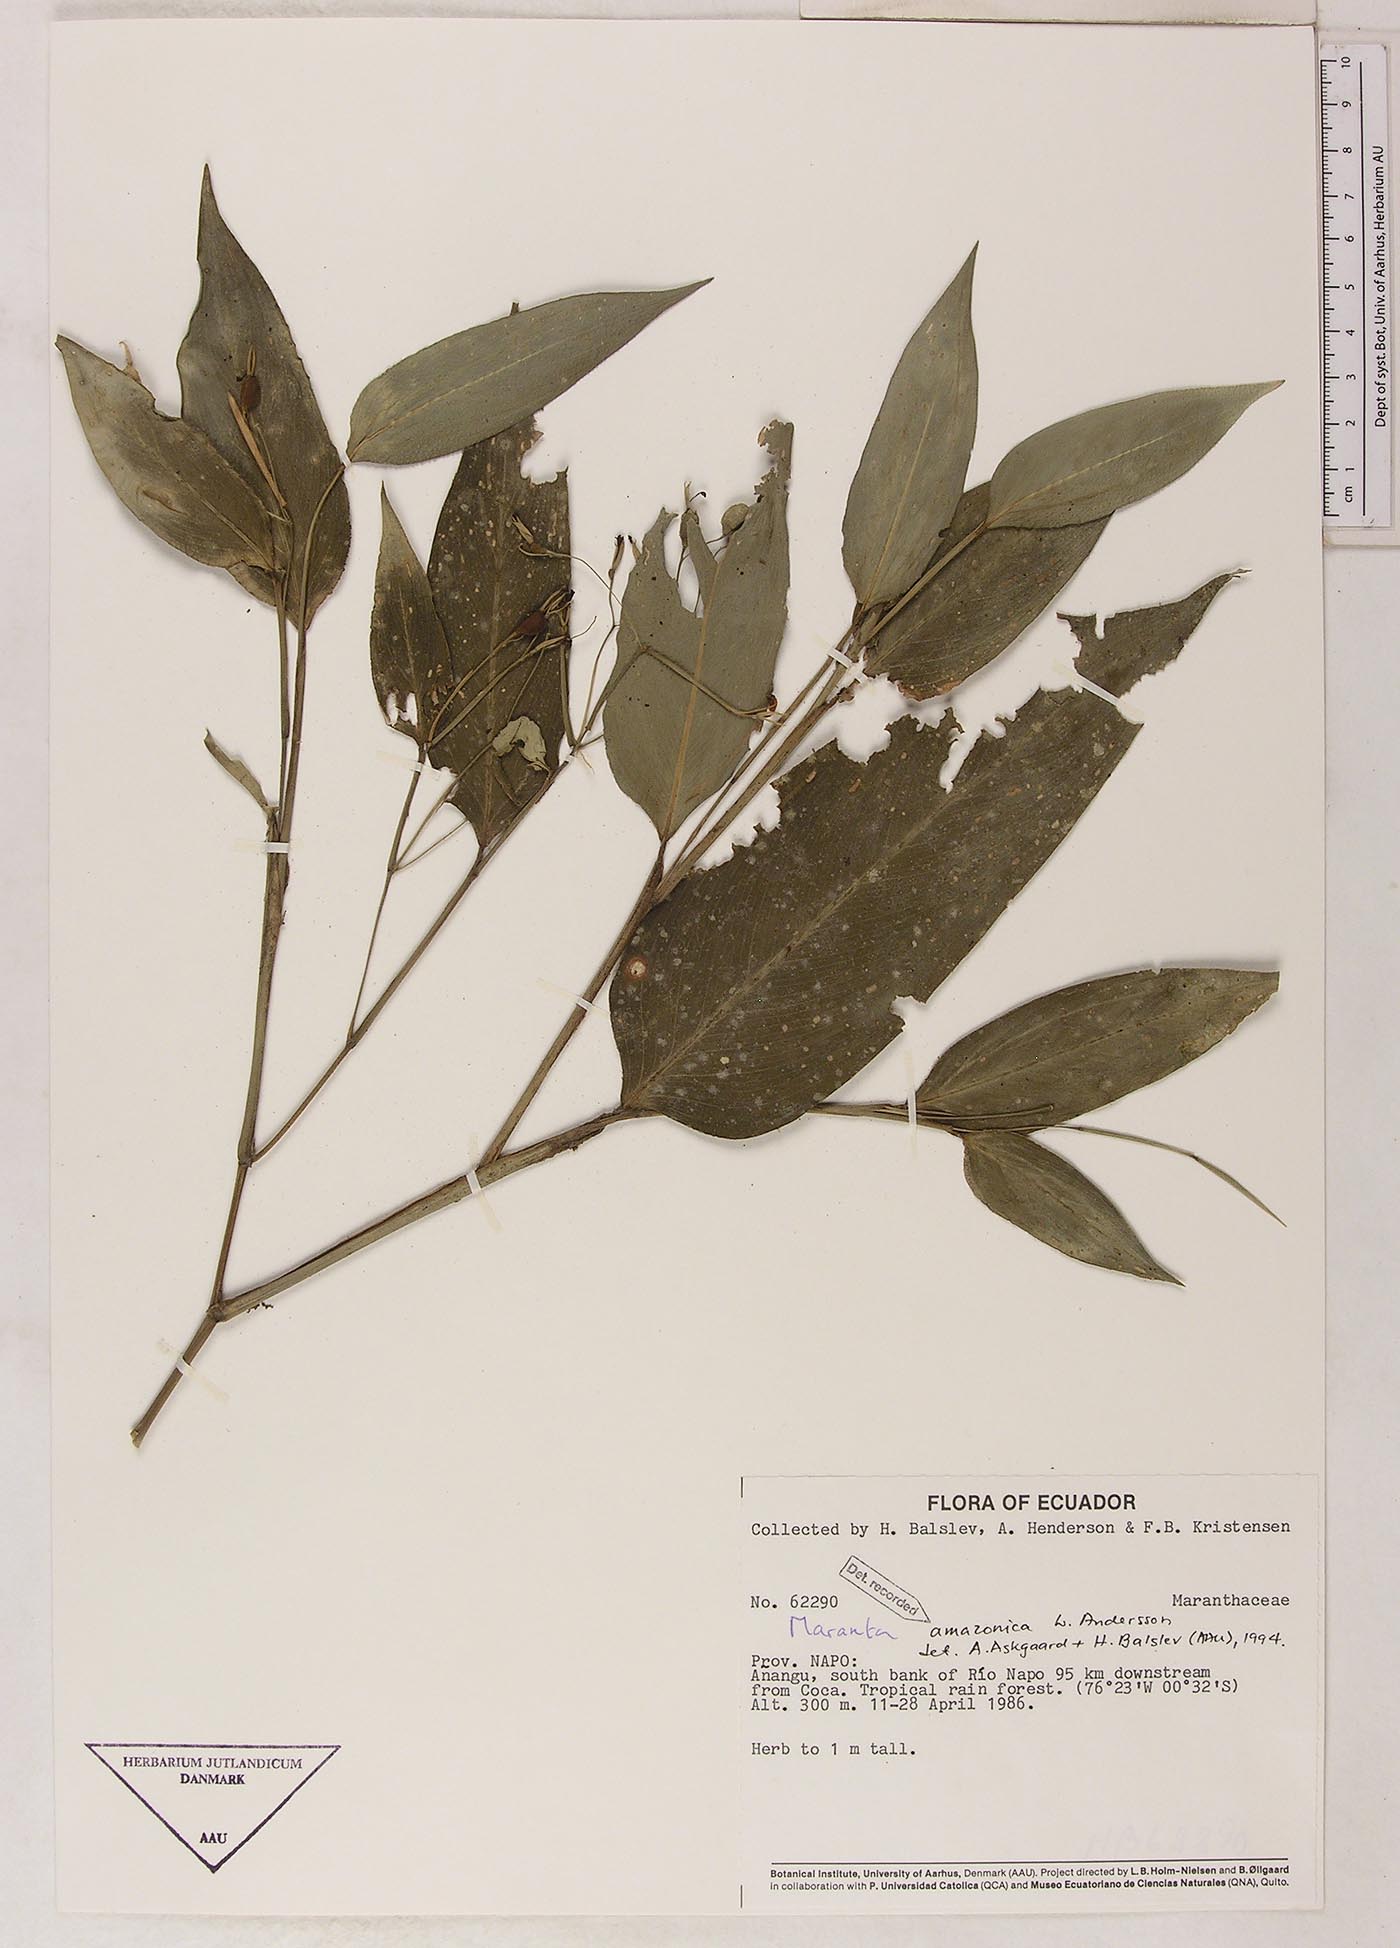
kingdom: Plantae
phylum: Tracheophyta
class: Liliopsida
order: Zingiberales
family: Marantaceae
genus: Maranta
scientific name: Maranta amazonica
